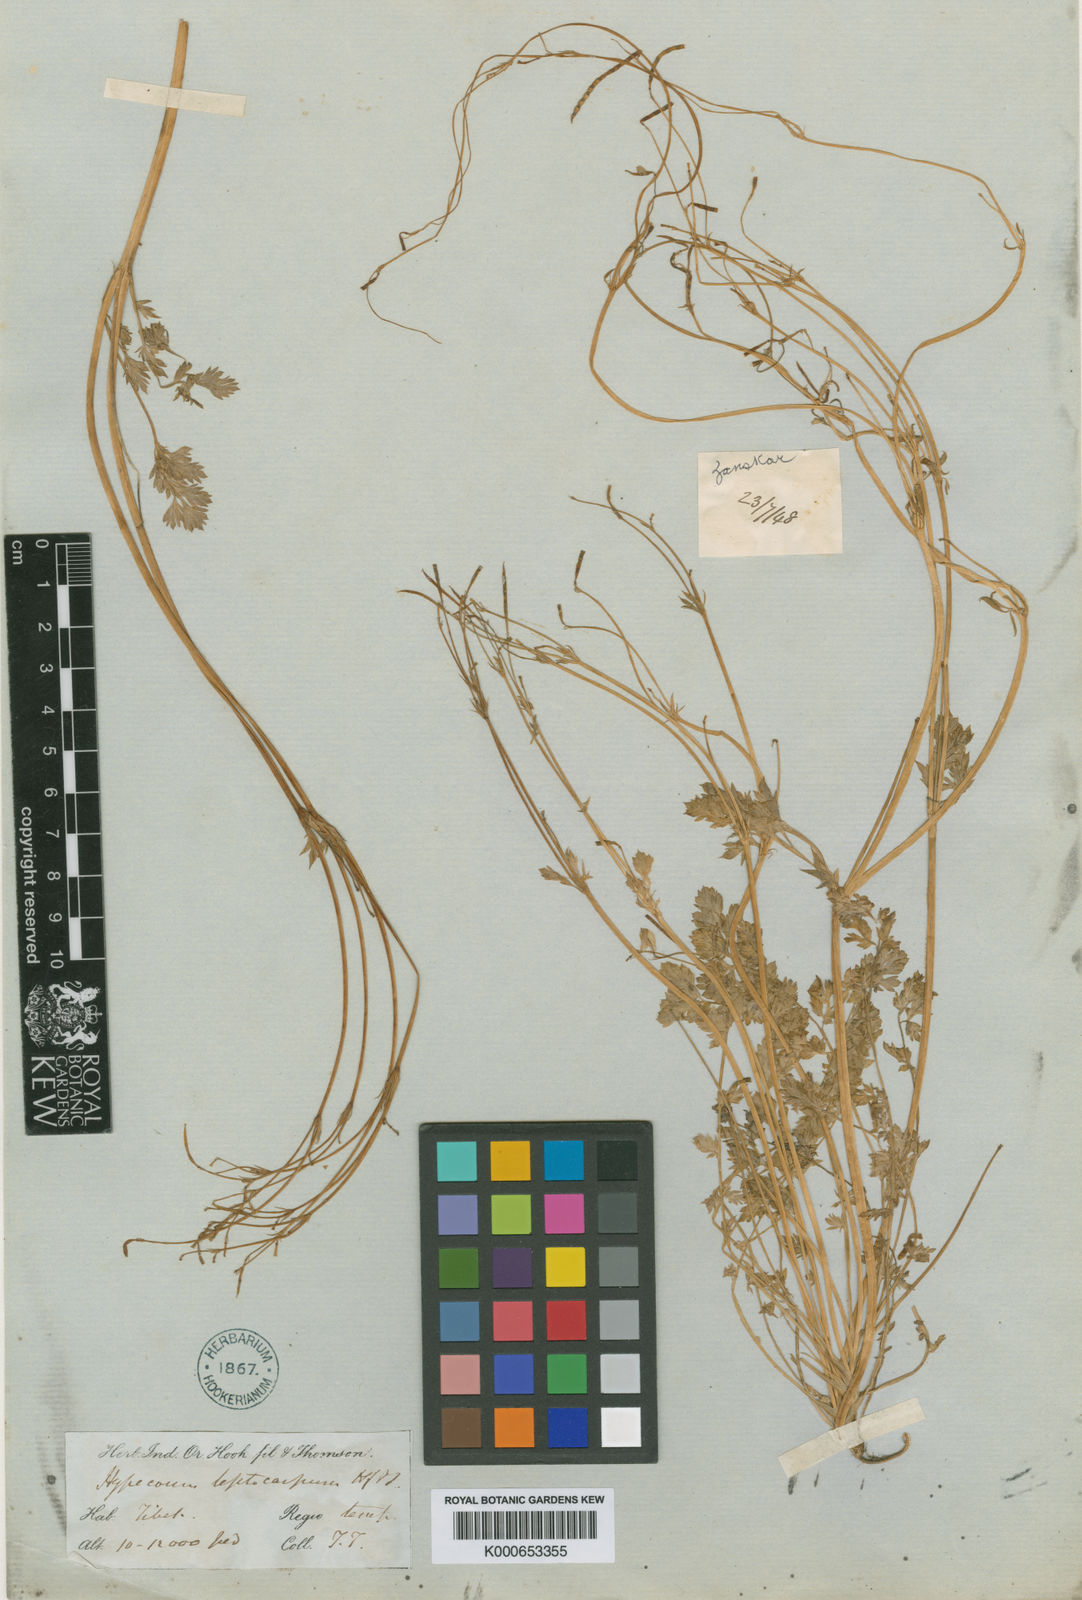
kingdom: Plantae
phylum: Tracheophyta
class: Magnoliopsida
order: Ranunculales
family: Papaveraceae
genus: Hypecoum
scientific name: Hypecoum leptocarpum
